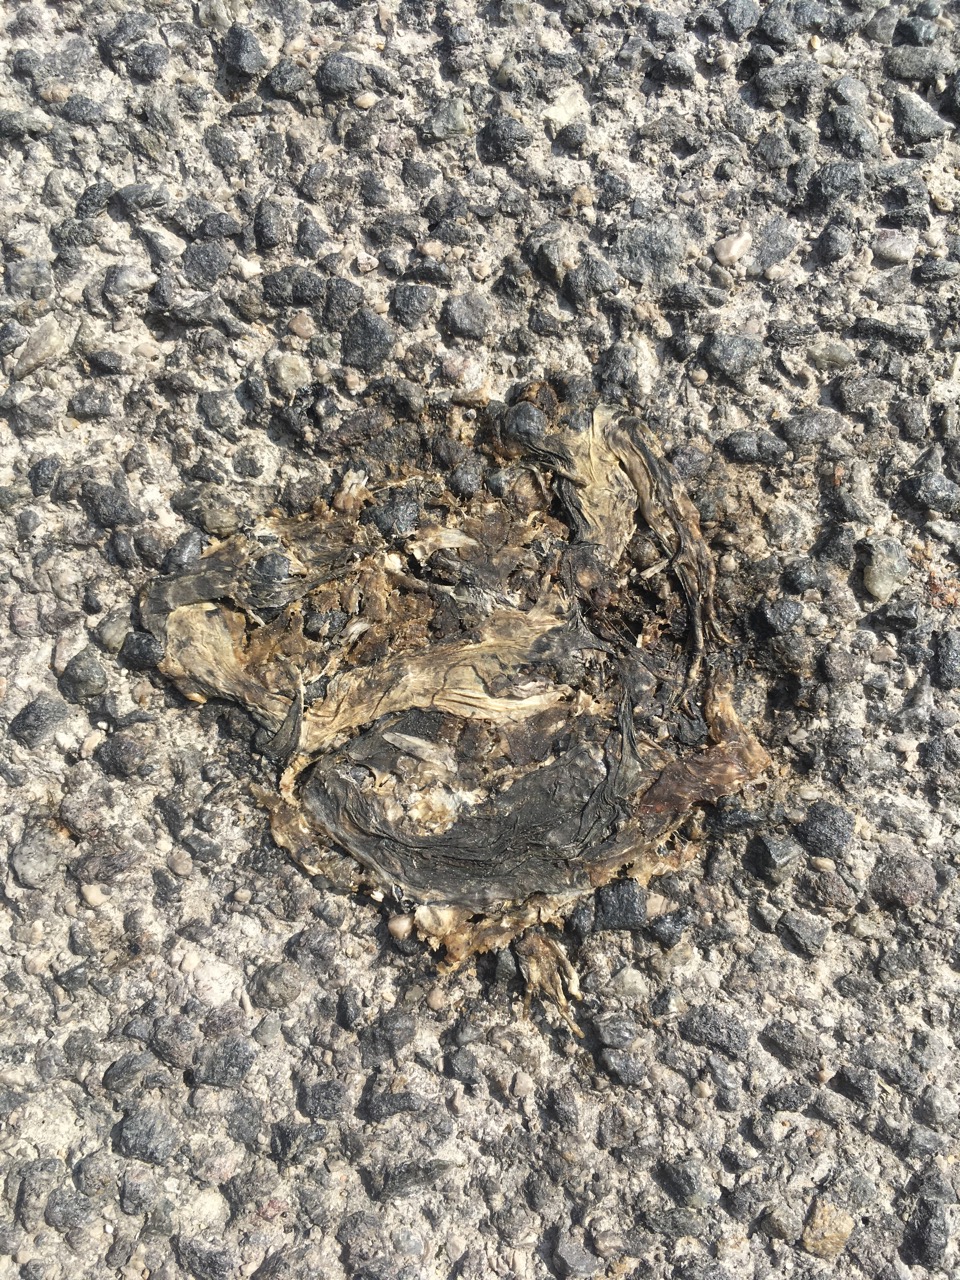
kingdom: Animalia
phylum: Chordata
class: Amphibia
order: Anura
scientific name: Anura
